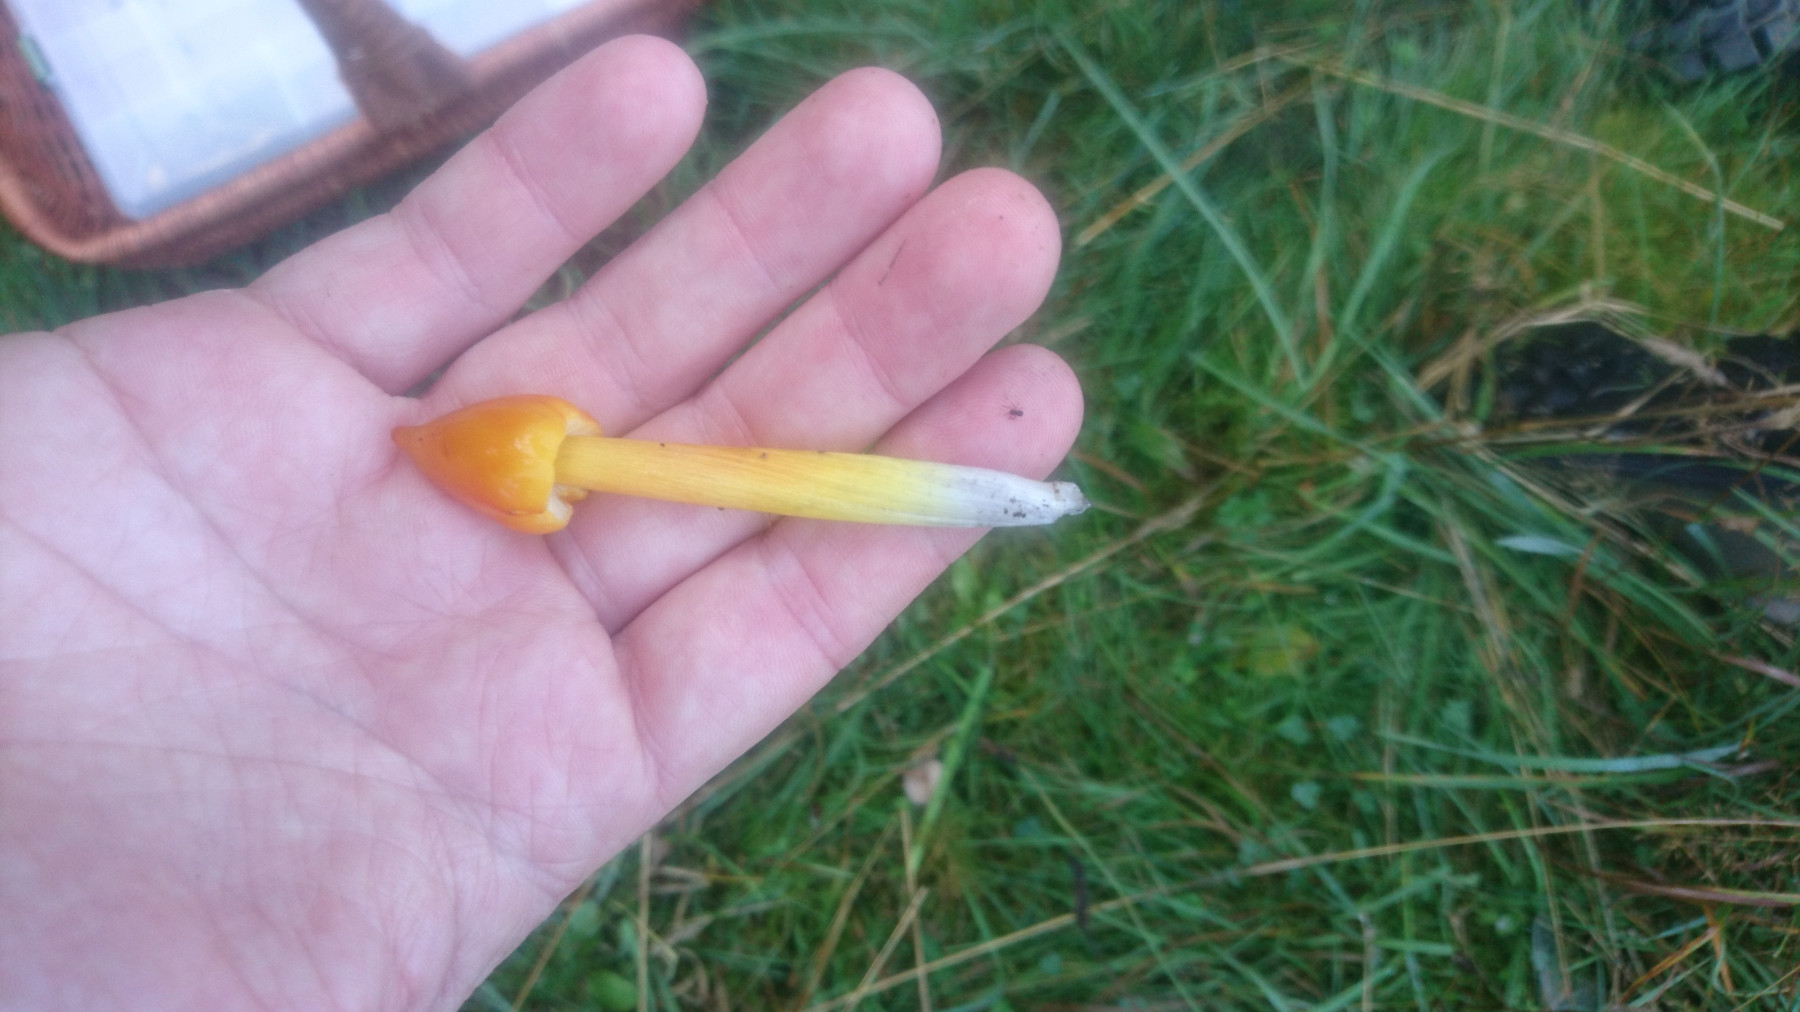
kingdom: Fungi
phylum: Basidiomycota
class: Agaricomycetes
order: Agaricales
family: Hygrophoraceae
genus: Hygrocybe
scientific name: Hygrocybe conica
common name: kegle-vokshat
